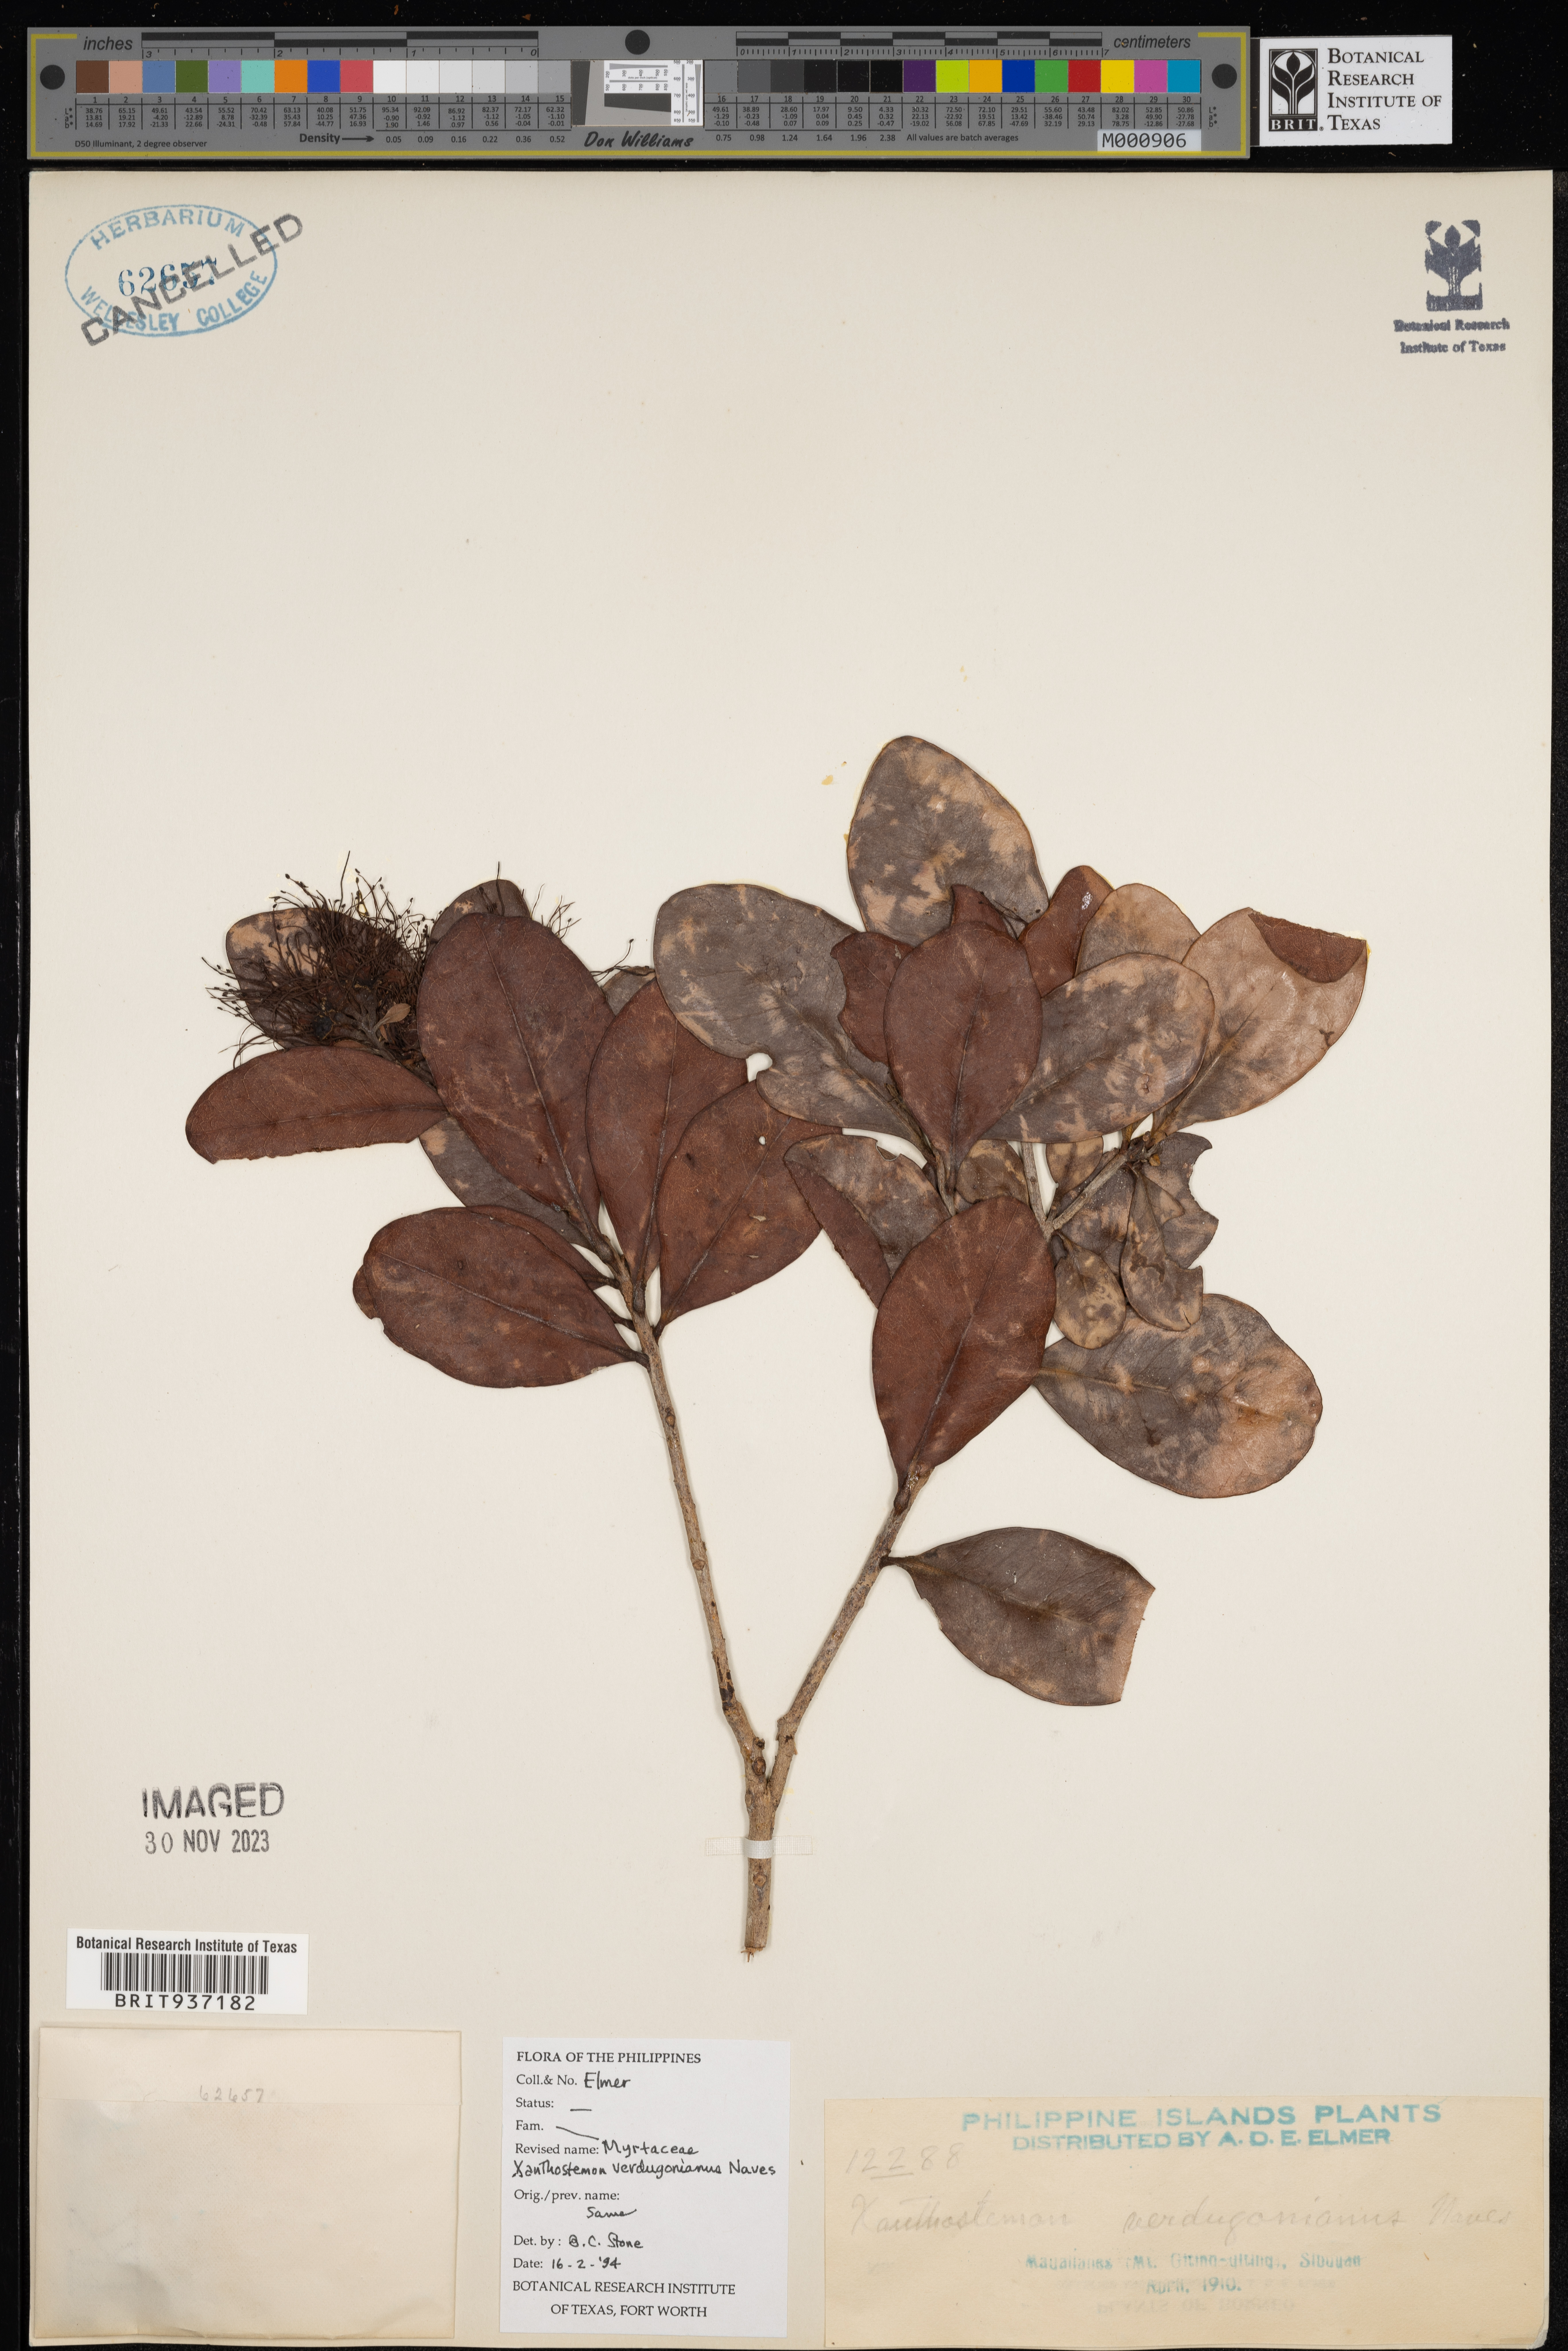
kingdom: Plantae
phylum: Tracheophyta
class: Magnoliopsida
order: Myrtales
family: Myrtaceae
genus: Xanthostemon
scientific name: Xanthostemon
